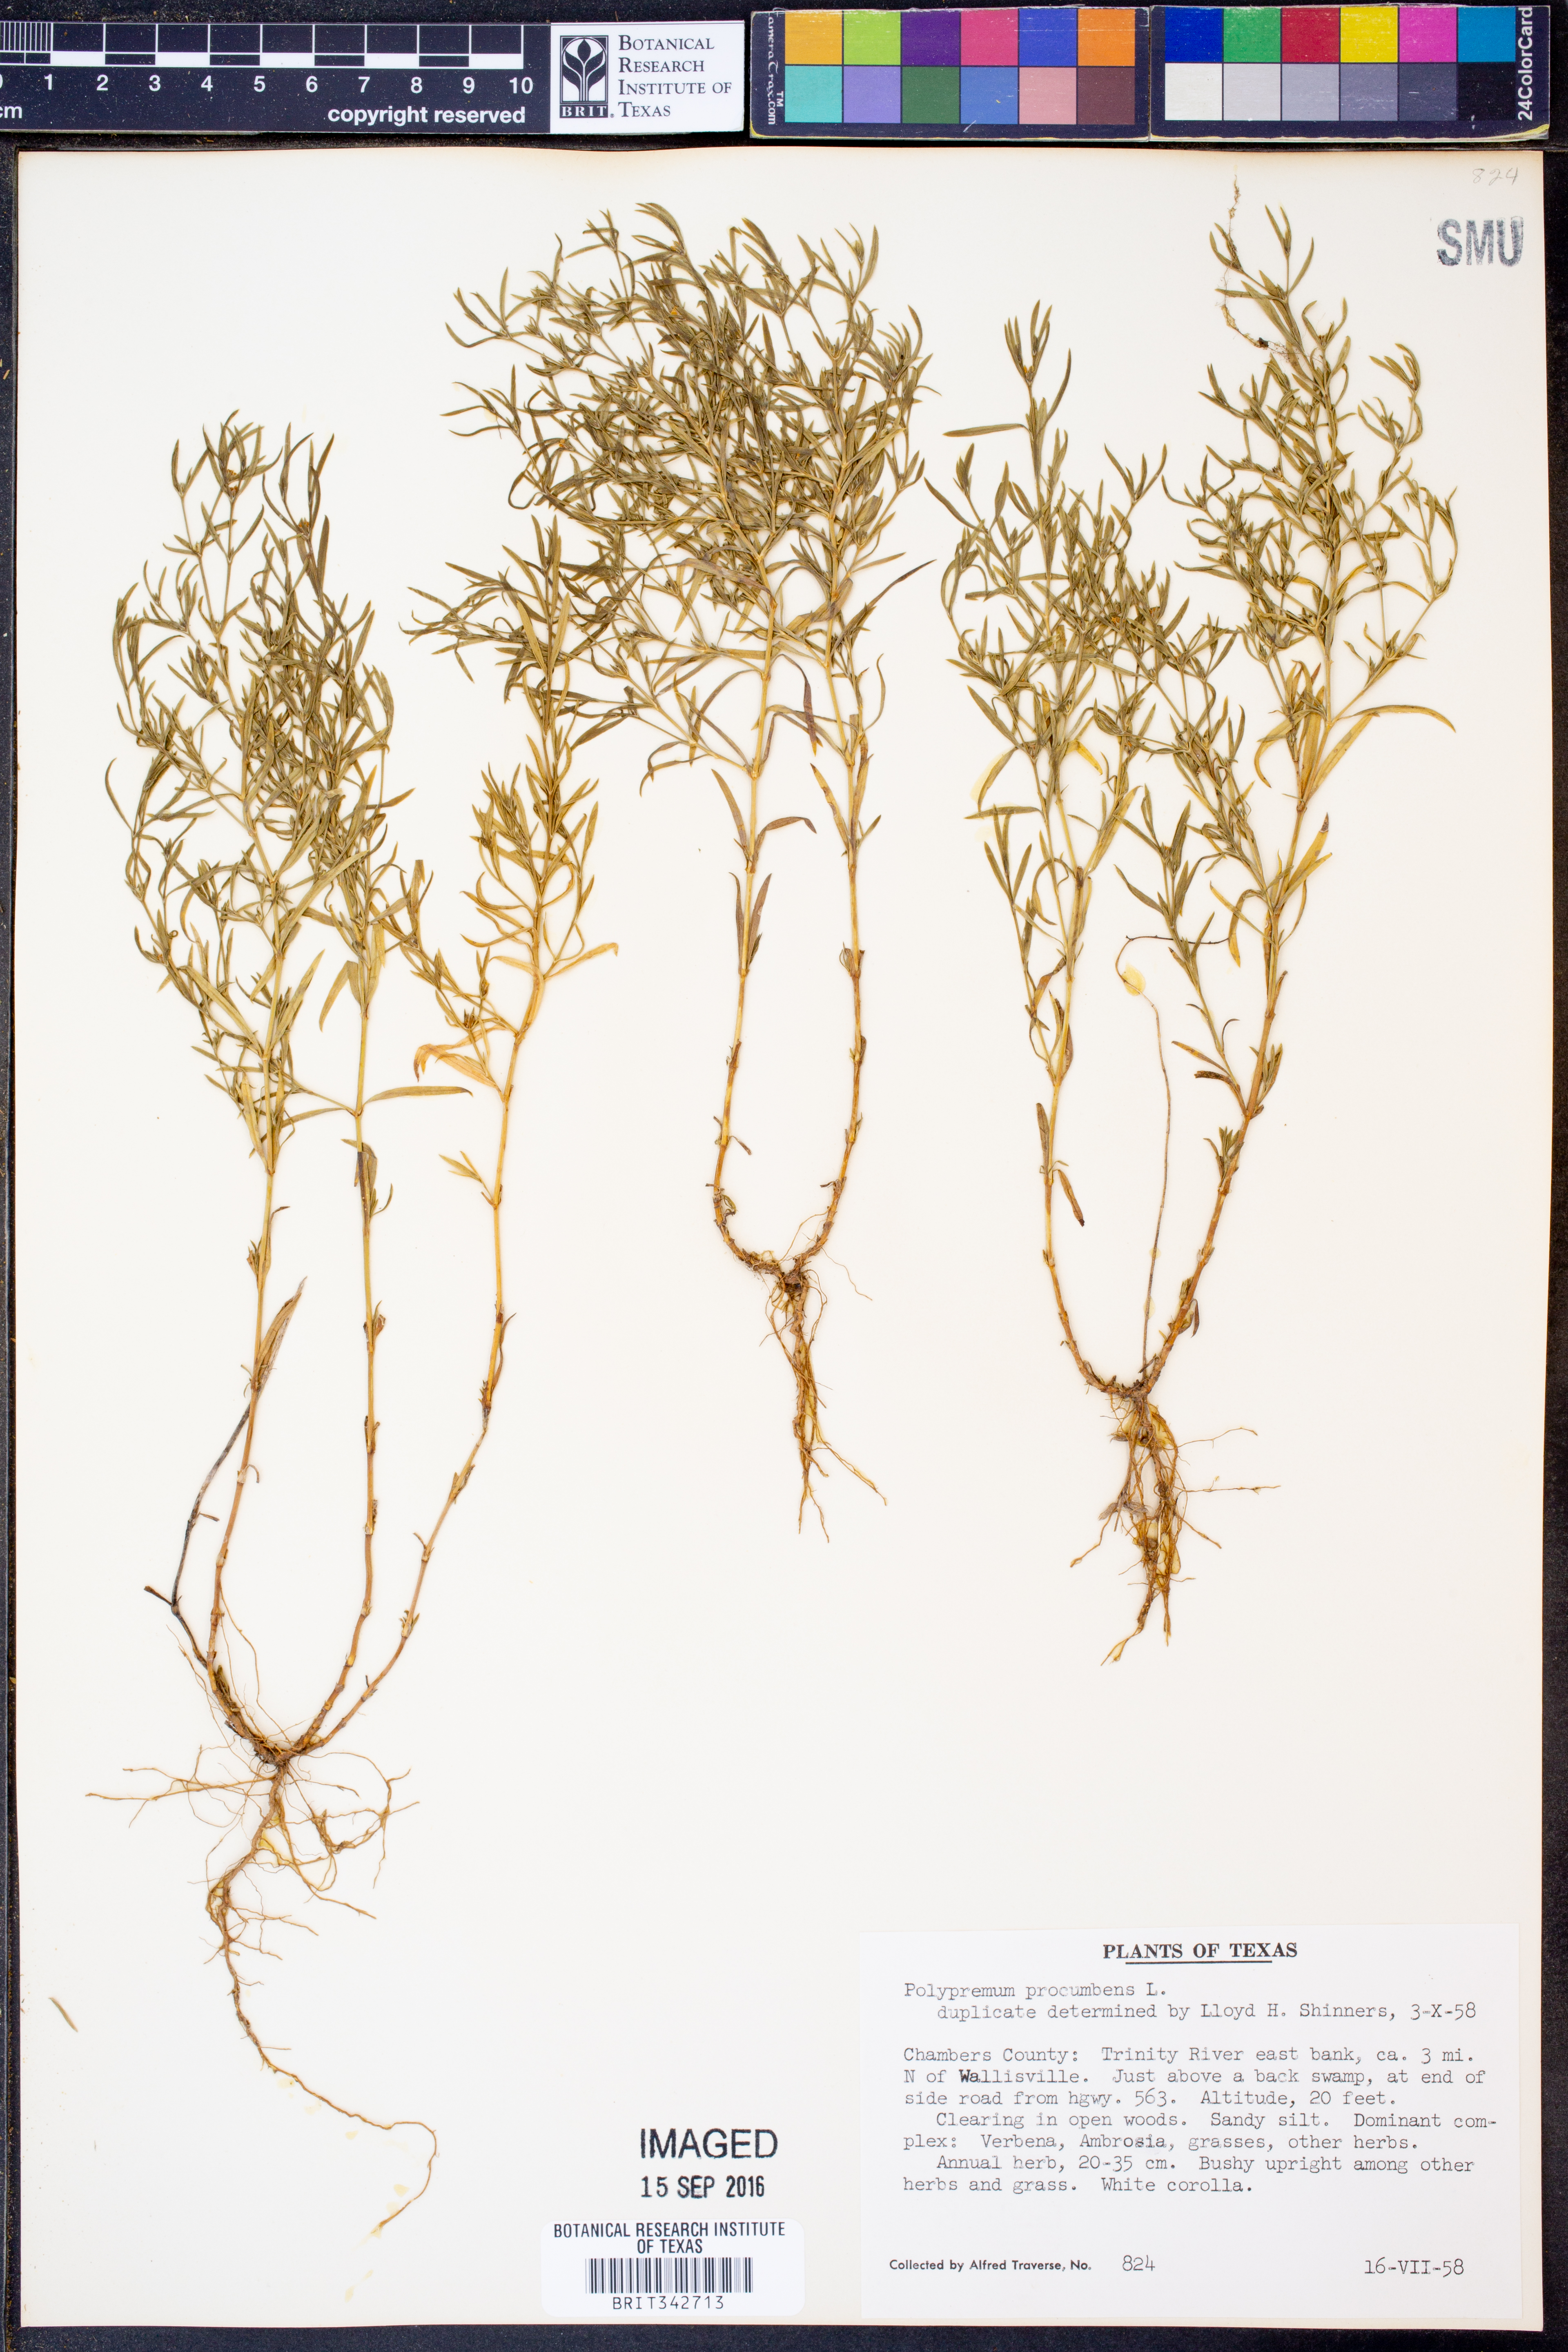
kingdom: Plantae
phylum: Tracheophyta
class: Magnoliopsida
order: Lamiales
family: Tetrachondraceae
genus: Polypremum
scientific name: Polypremum procumbens
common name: Juniper-leaf
